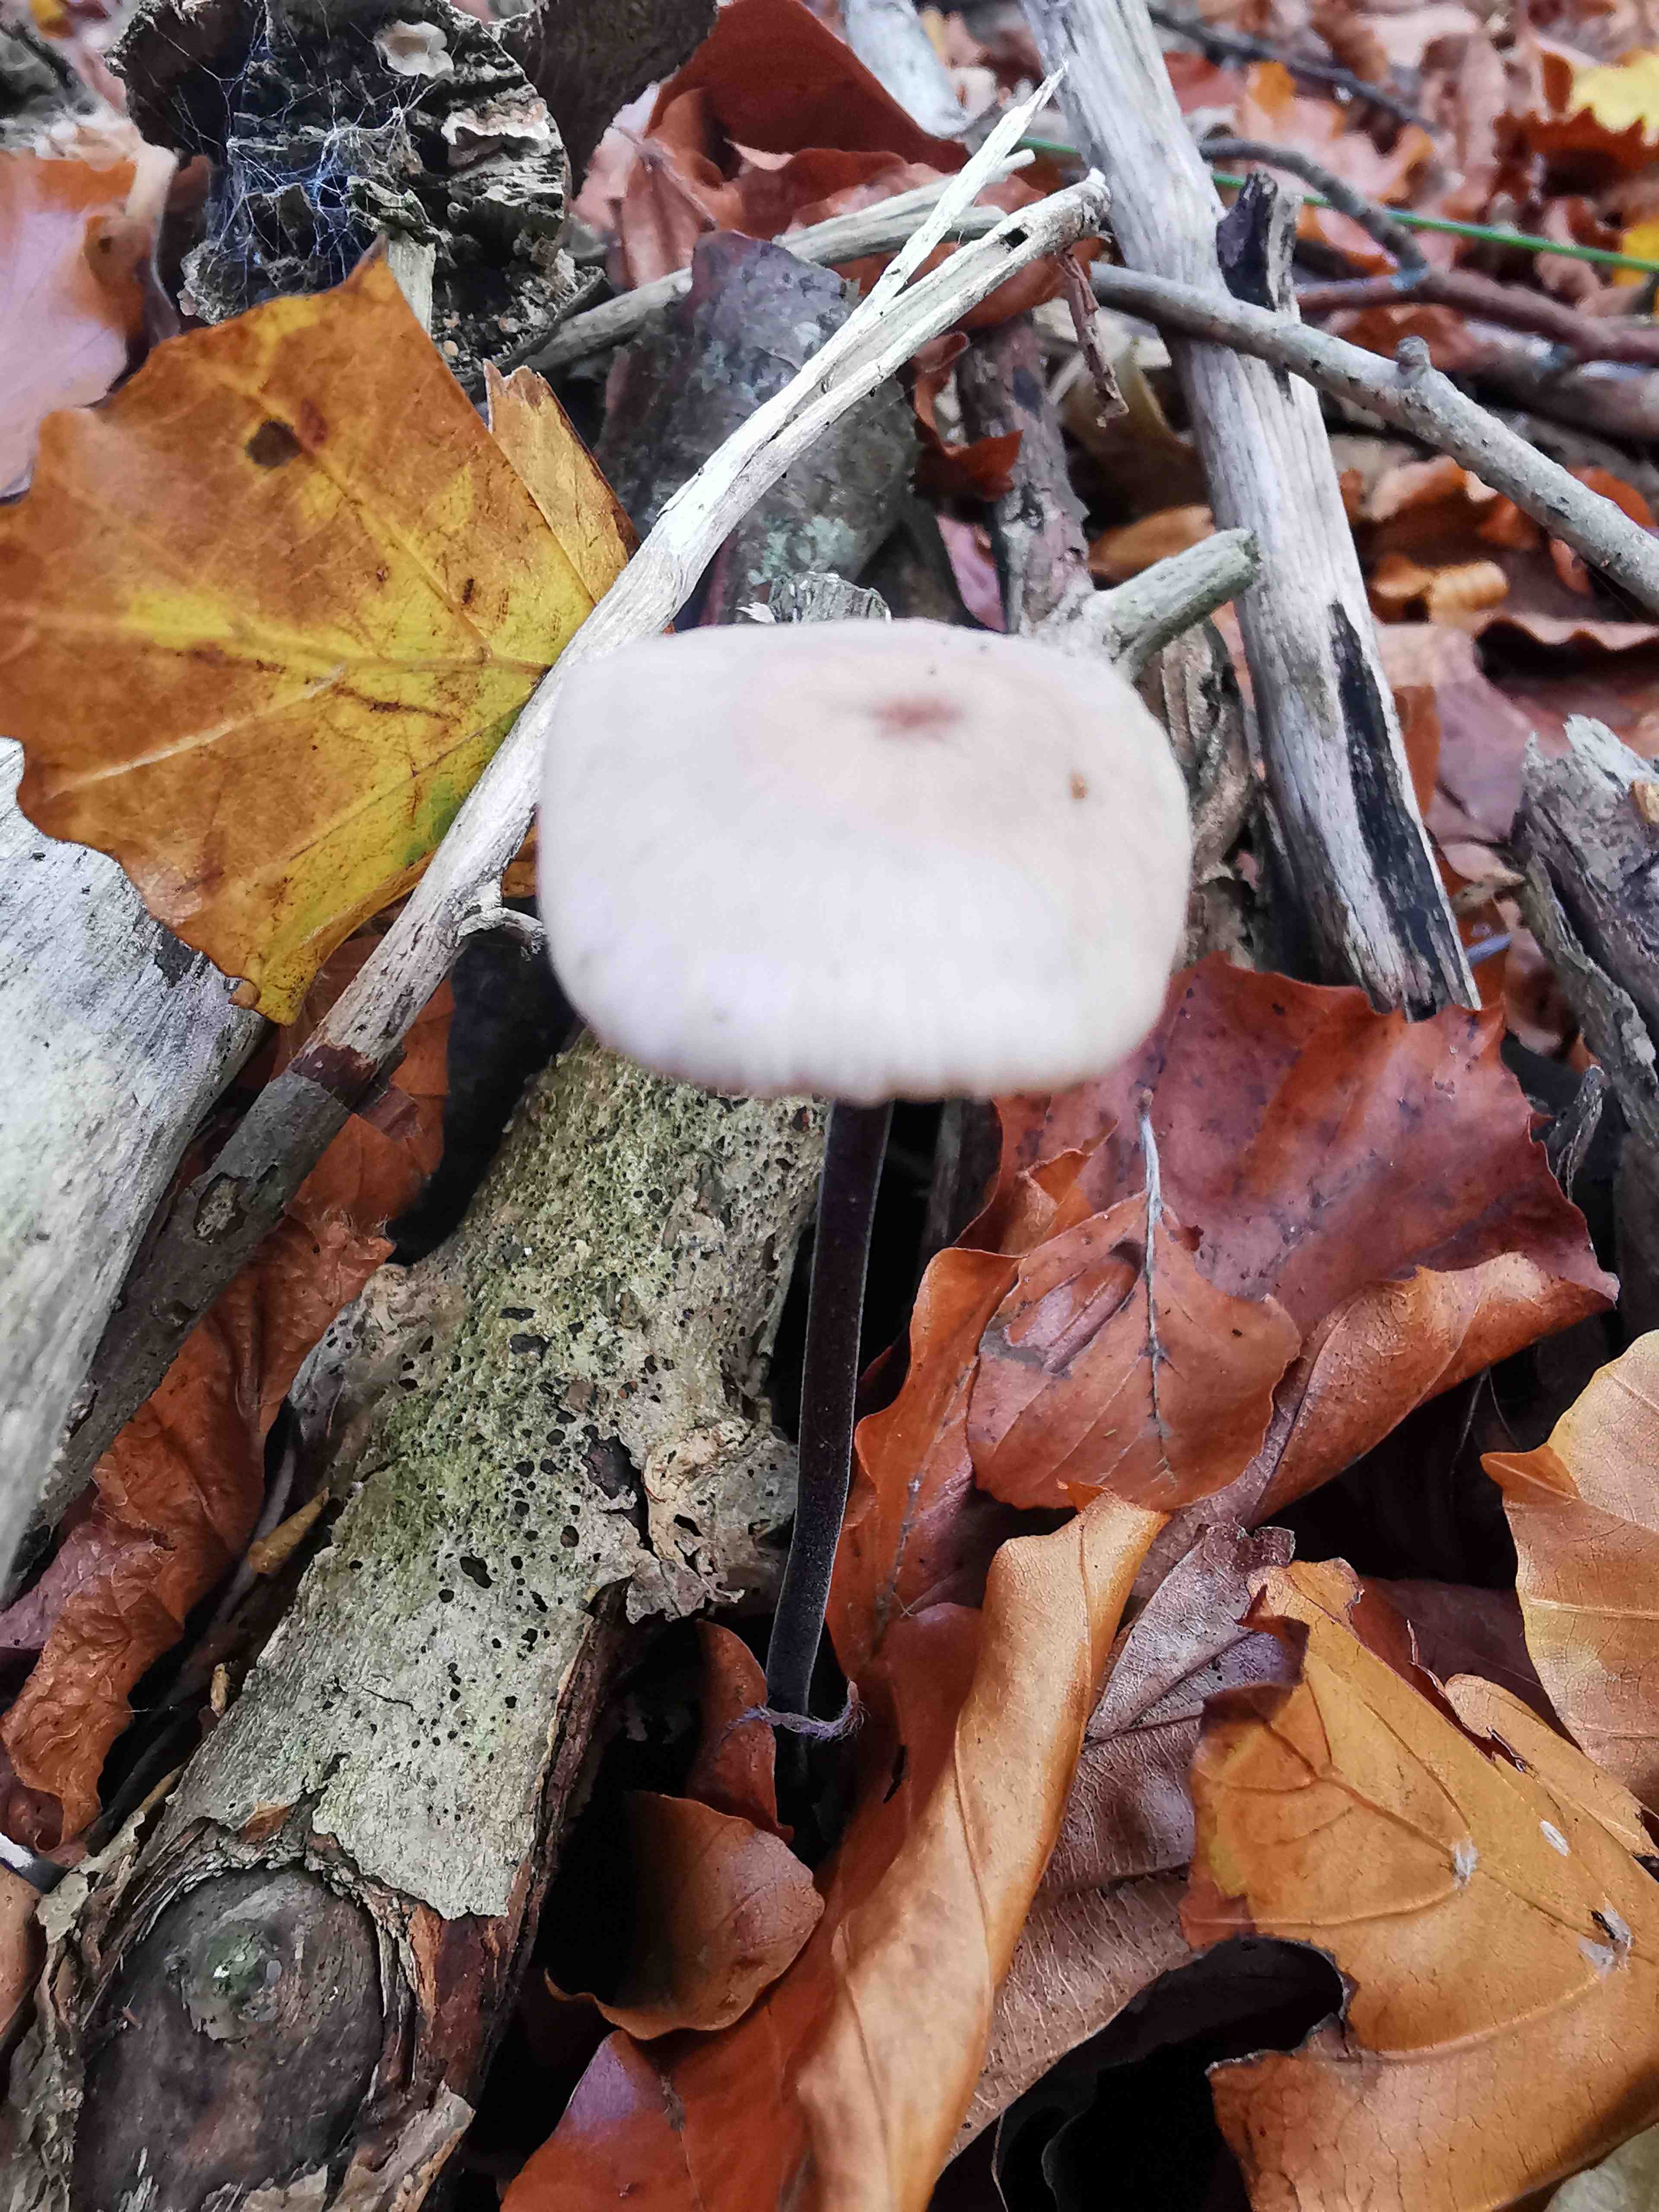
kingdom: Fungi
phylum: Basidiomycota
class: Agaricomycetes
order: Agaricales
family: Omphalotaceae
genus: Mycetinis
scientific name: Mycetinis alliaceus
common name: stor løghat
